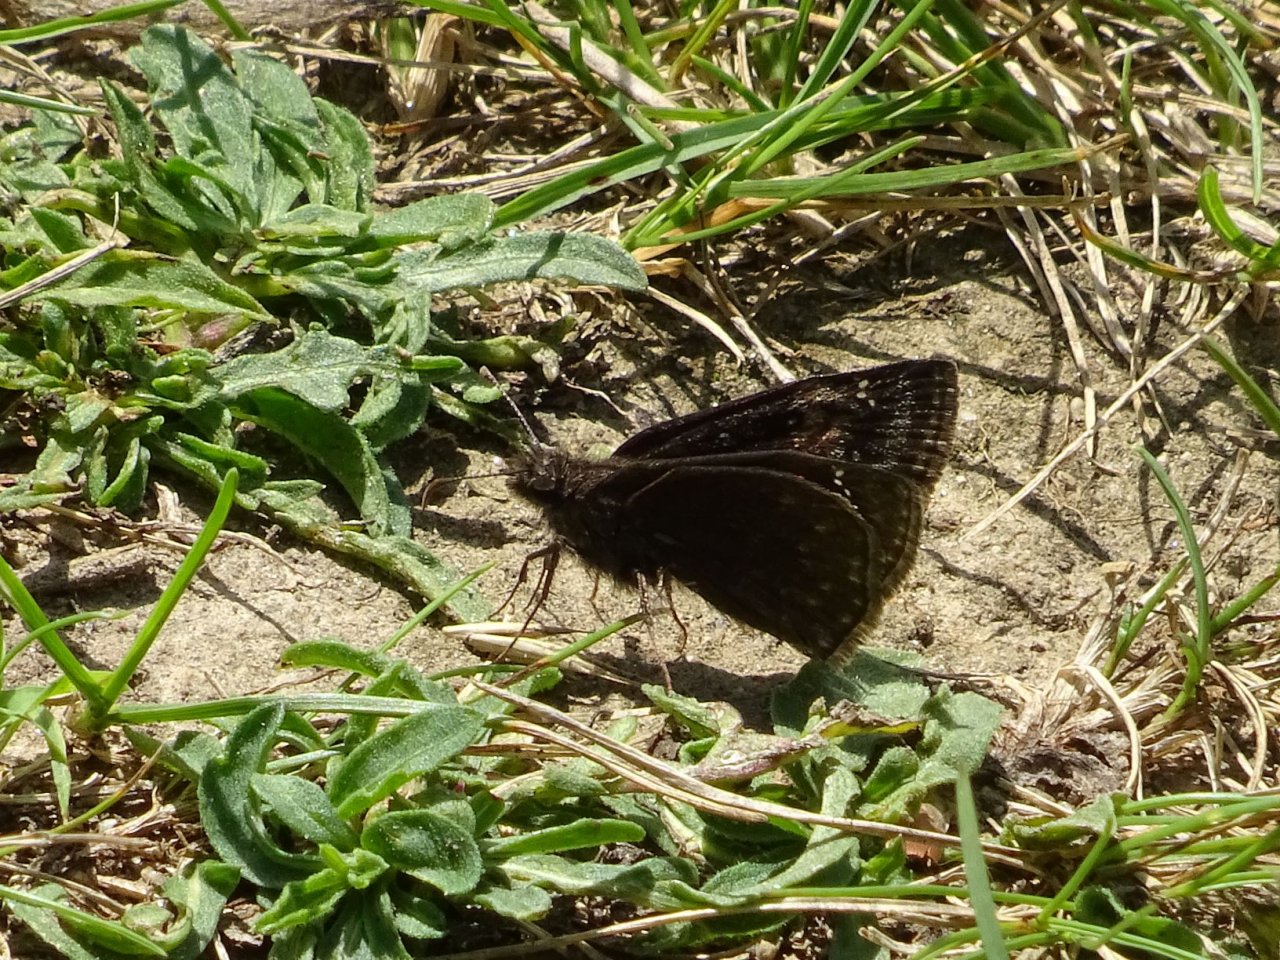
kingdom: Animalia
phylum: Arthropoda
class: Insecta
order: Lepidoptera
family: Hesperiidae
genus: Gesta
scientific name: Gesta
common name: Wild Indigo Duskywing
